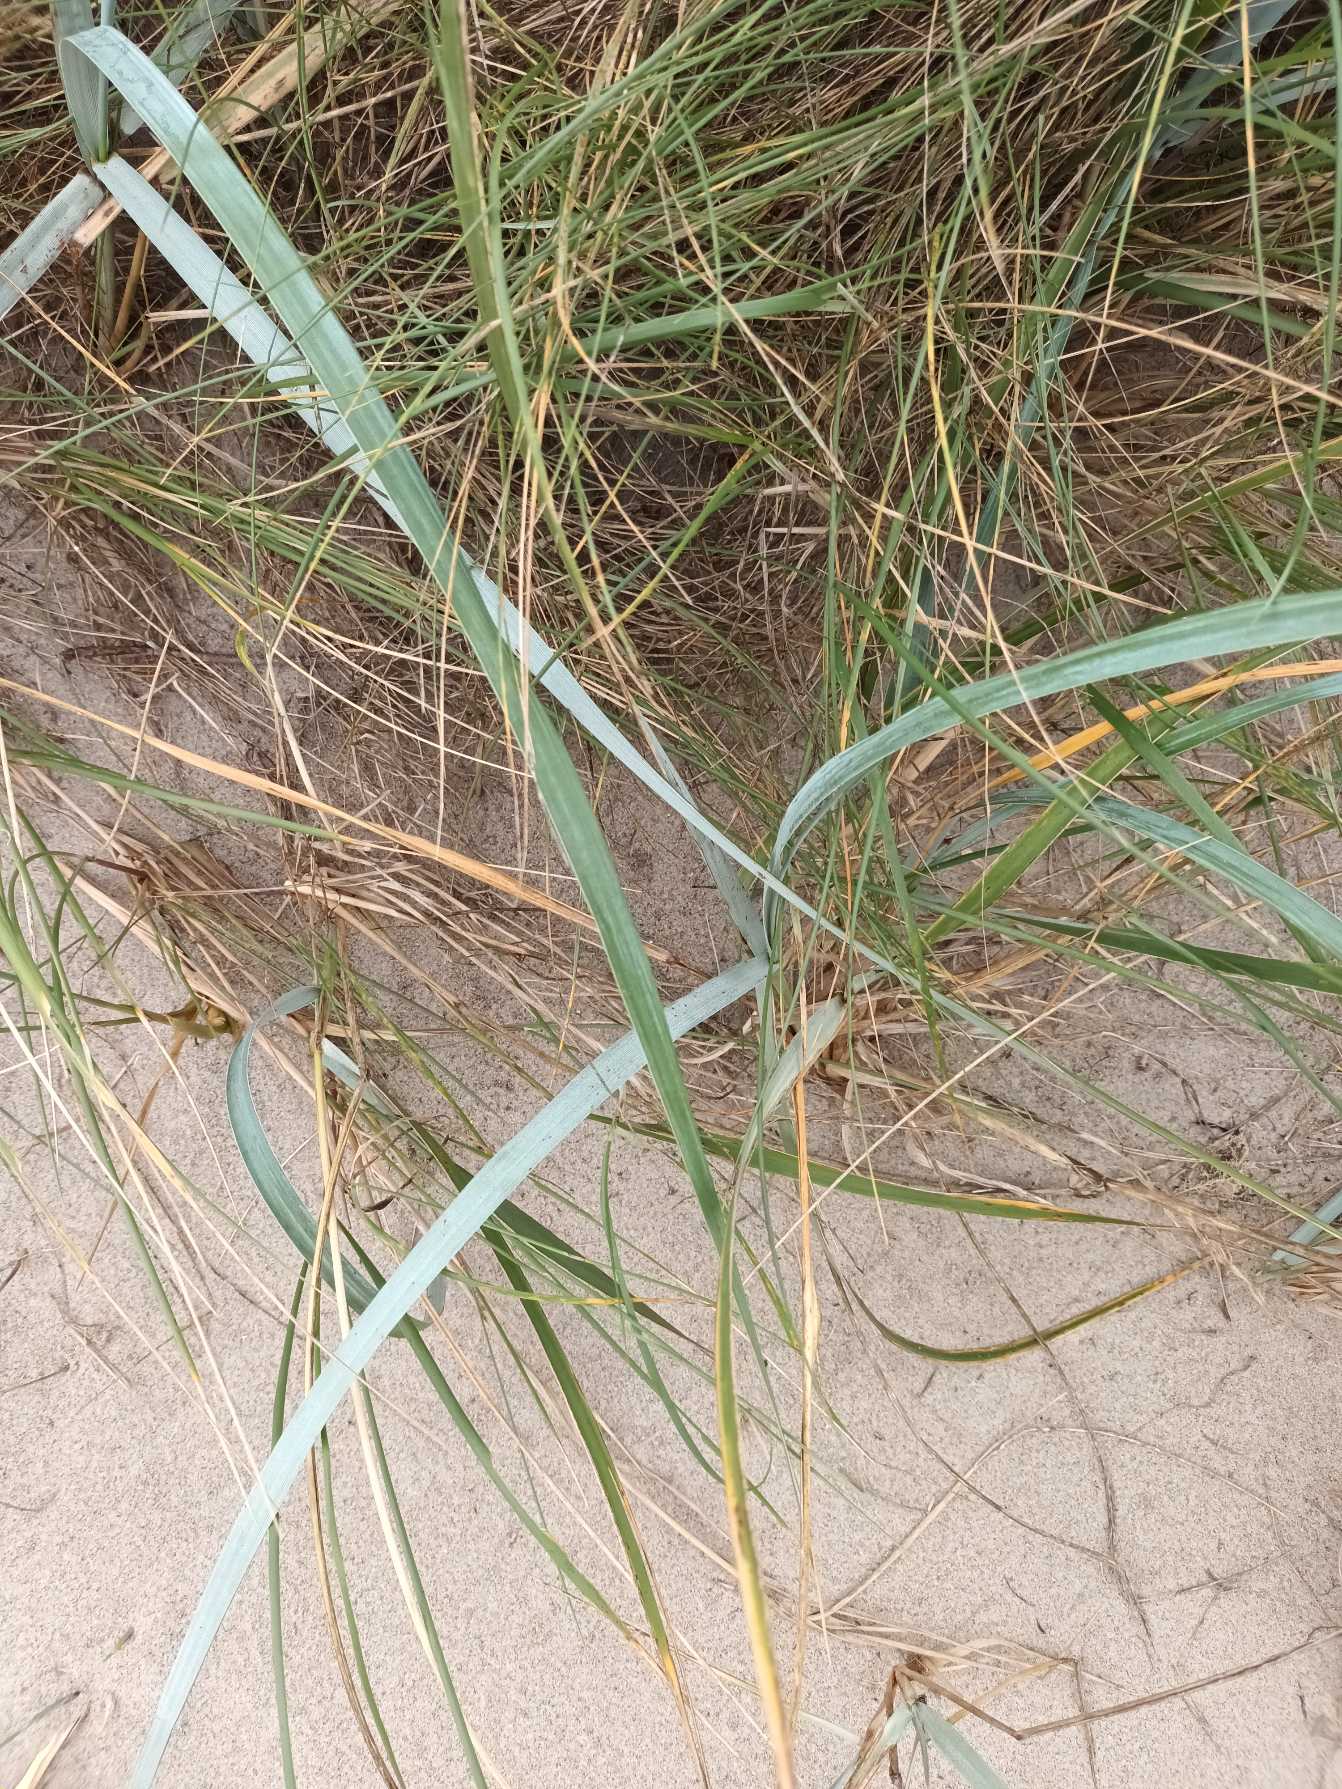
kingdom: Plantae
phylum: Tracheophyta
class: Liliopsida
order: Poales
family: Poaceae
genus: Leymus
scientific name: Leymus arenarius
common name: Marehalm
